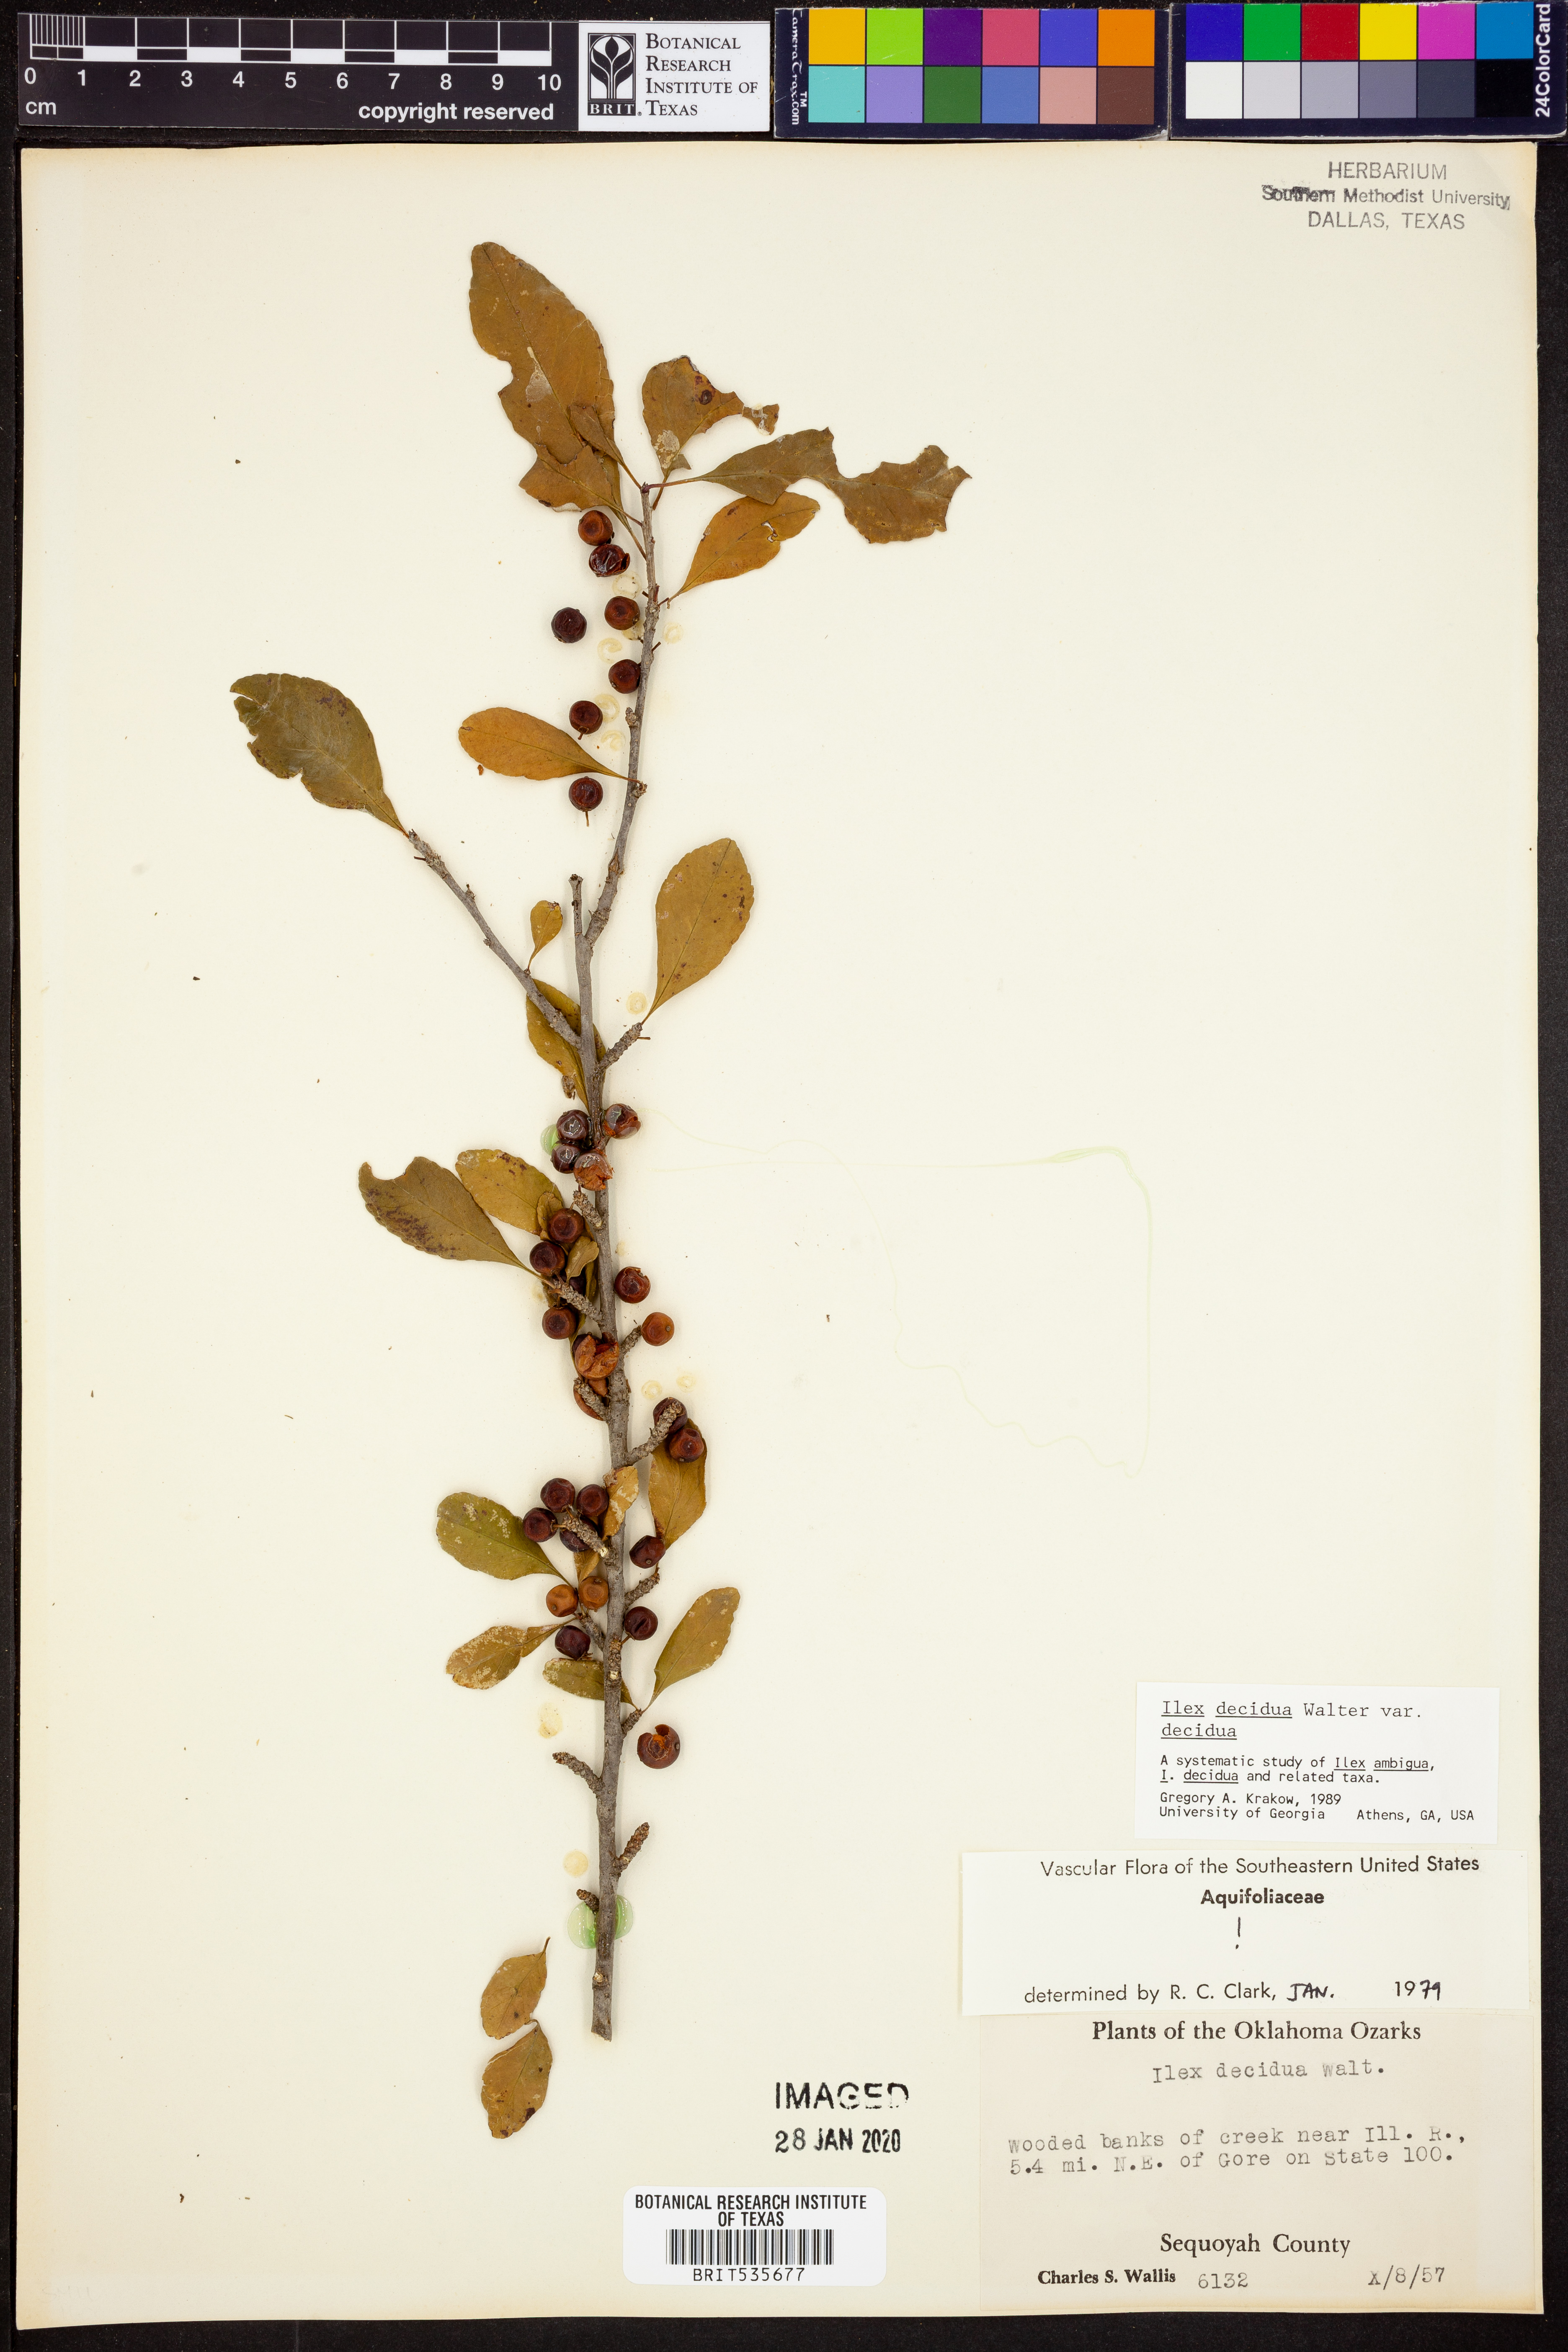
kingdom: Plantae
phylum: Tracheophyta
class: Magnoliopsida
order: Aquifoliales
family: Aquifoliaceae
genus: Ilex
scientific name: Ilex decidua
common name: Possum-haw
